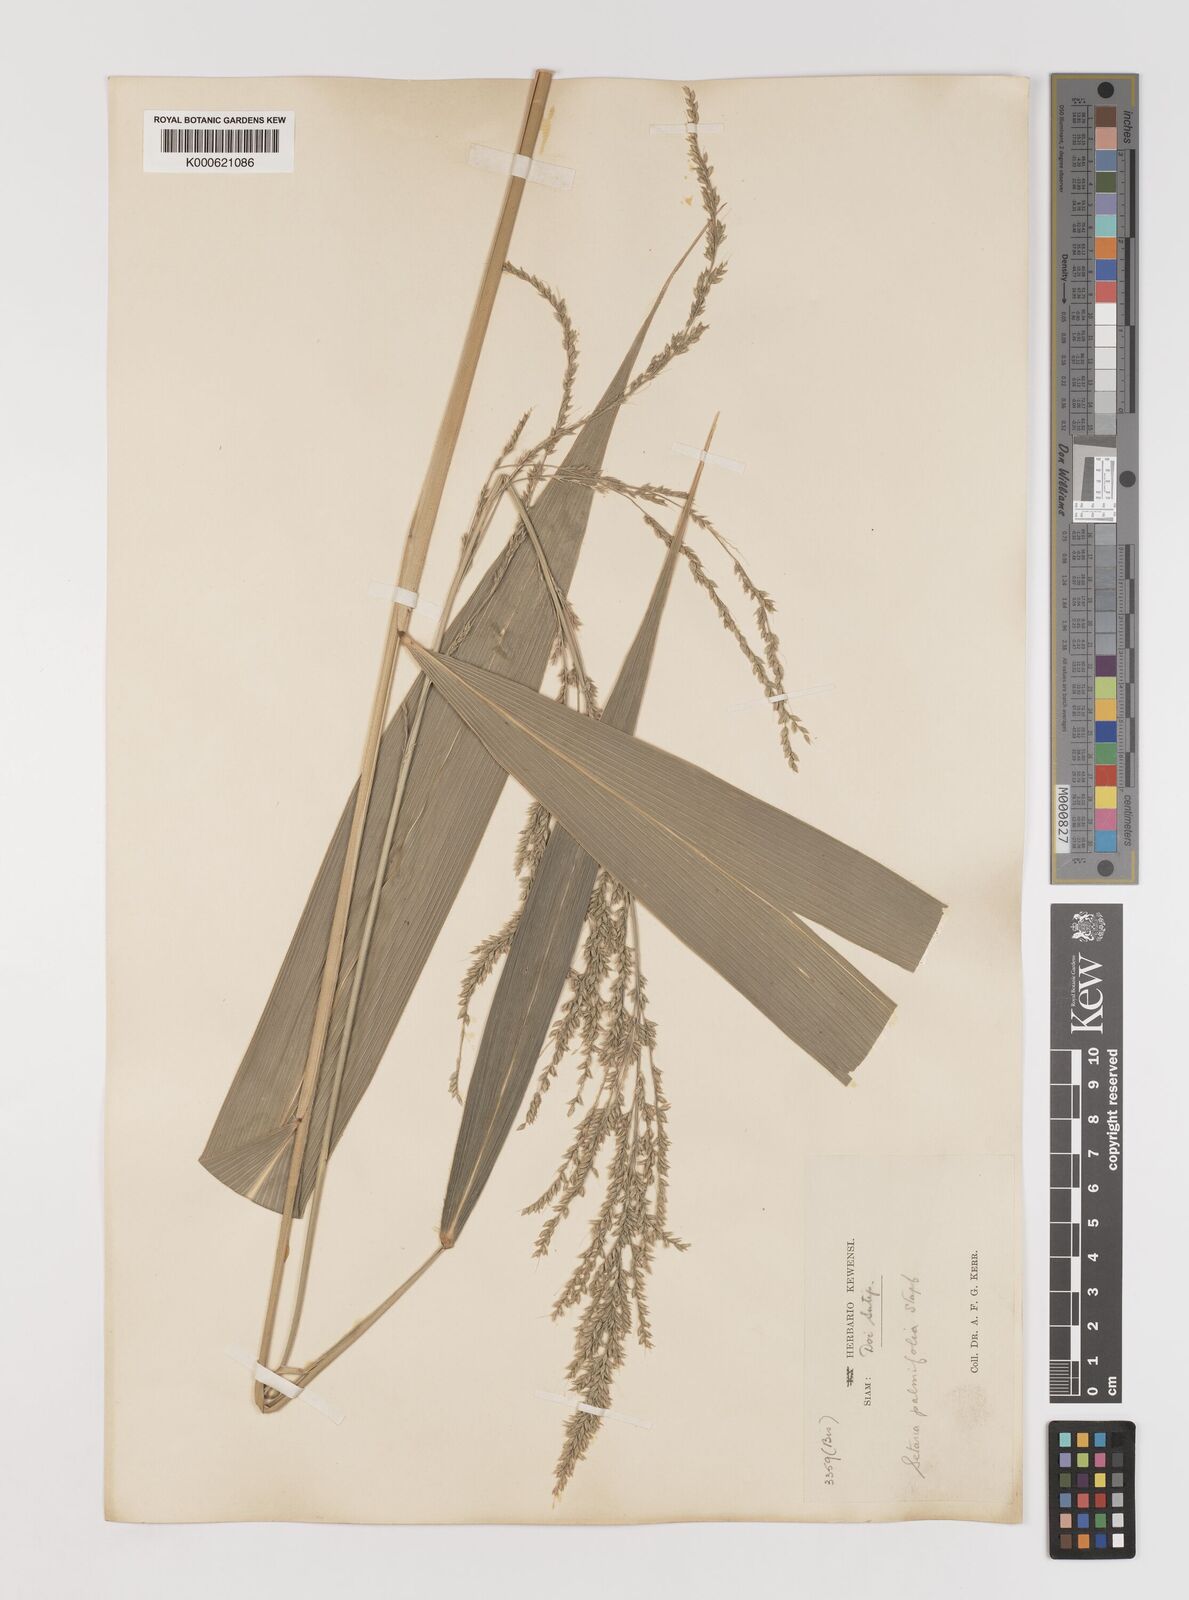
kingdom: Plantae
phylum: Tracheophyta
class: Liliopsida
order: Poales
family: Poaceae
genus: Setaria
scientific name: Setaria palmifolia
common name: Broadleaved bristlegrass
